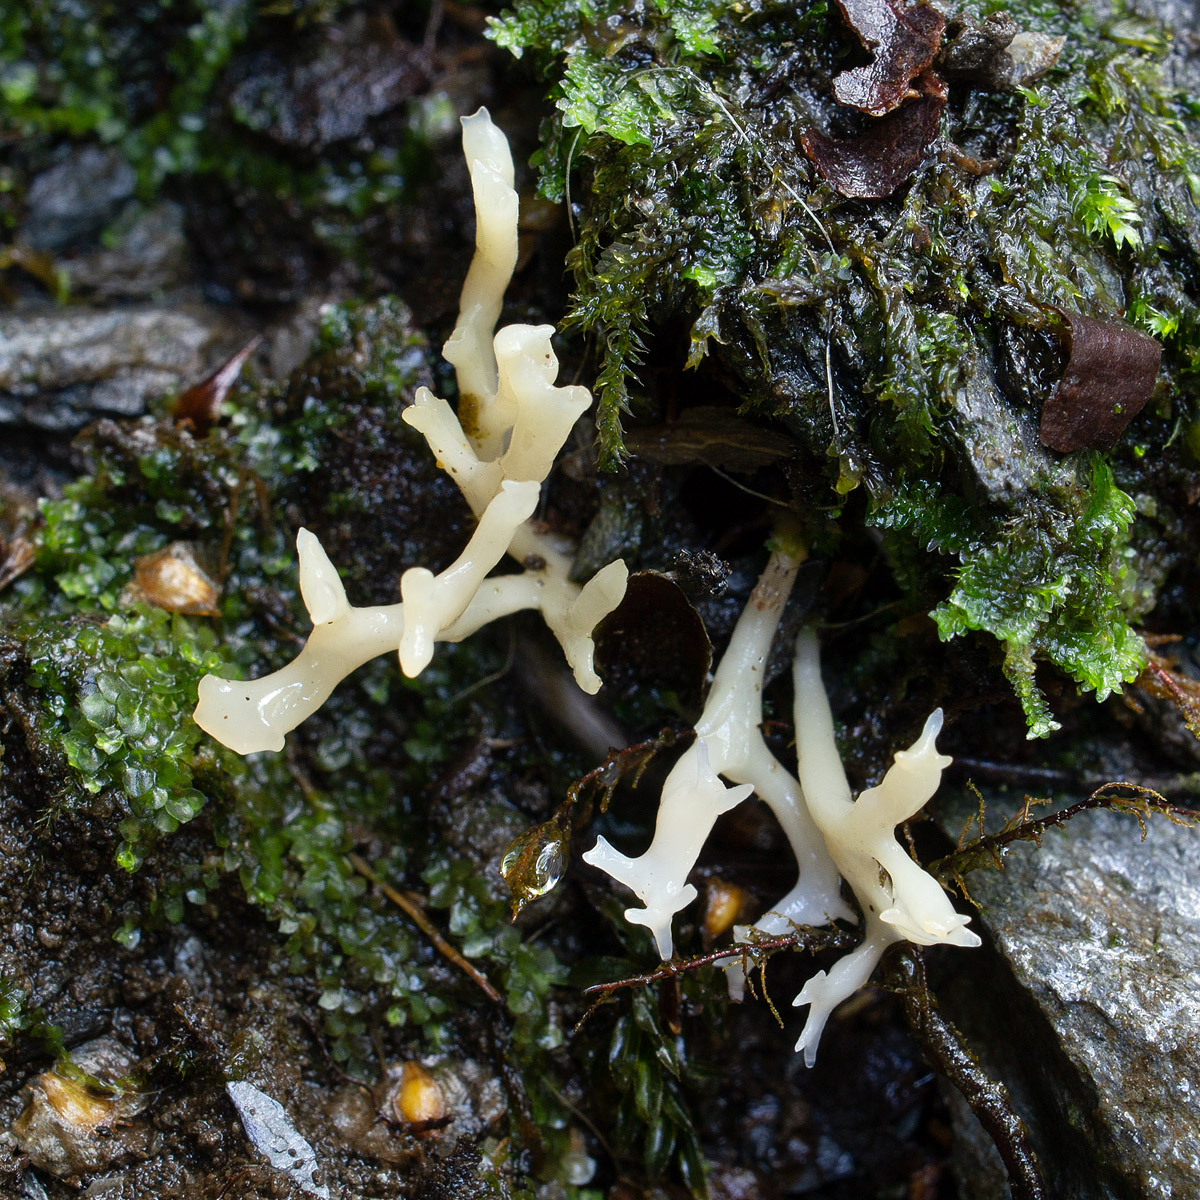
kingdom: Fungi
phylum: Basidiomycota
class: Agaricomycetes
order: Agaricales
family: Clavariaceae
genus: Ramariopsis
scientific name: Ramariopsis subtilis
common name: Slender coral
